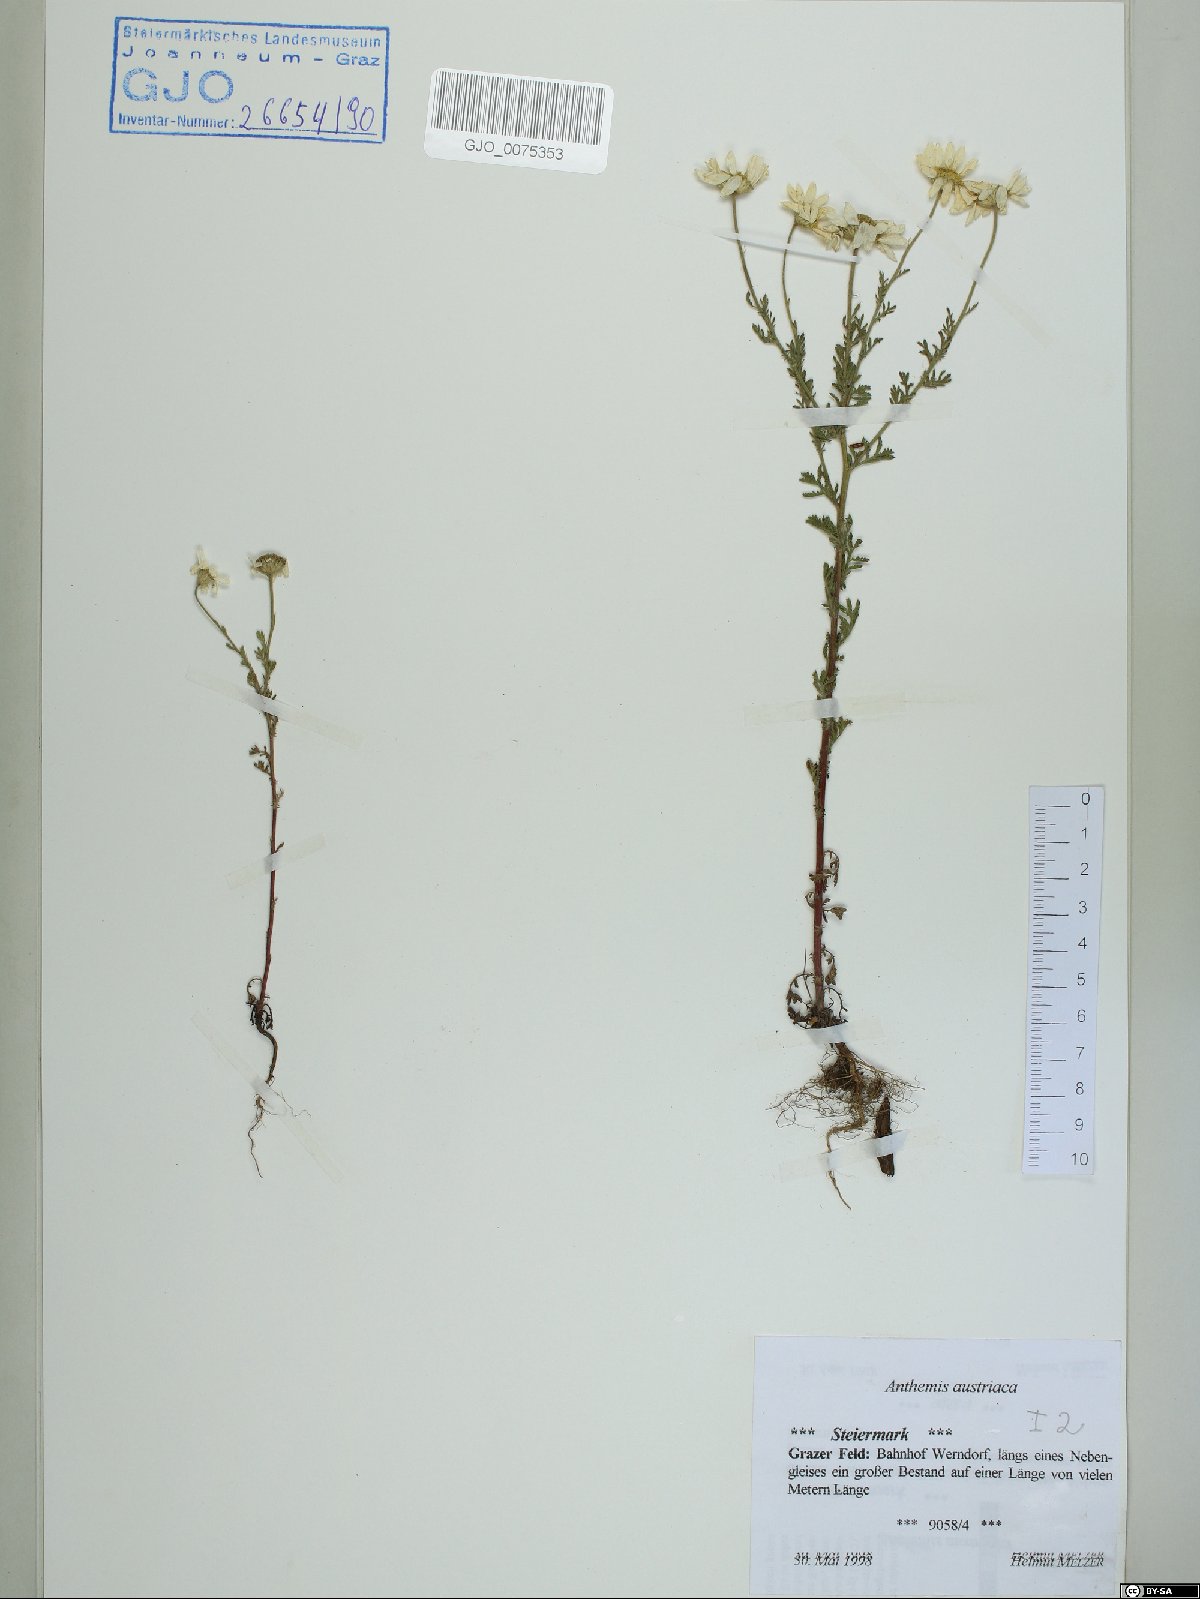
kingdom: Plantae
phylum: Tracheophyta
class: Magnoliopsida
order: Asterales
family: Asteraceae
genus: Cota
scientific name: Cota austriaca
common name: Austrian chamomile
